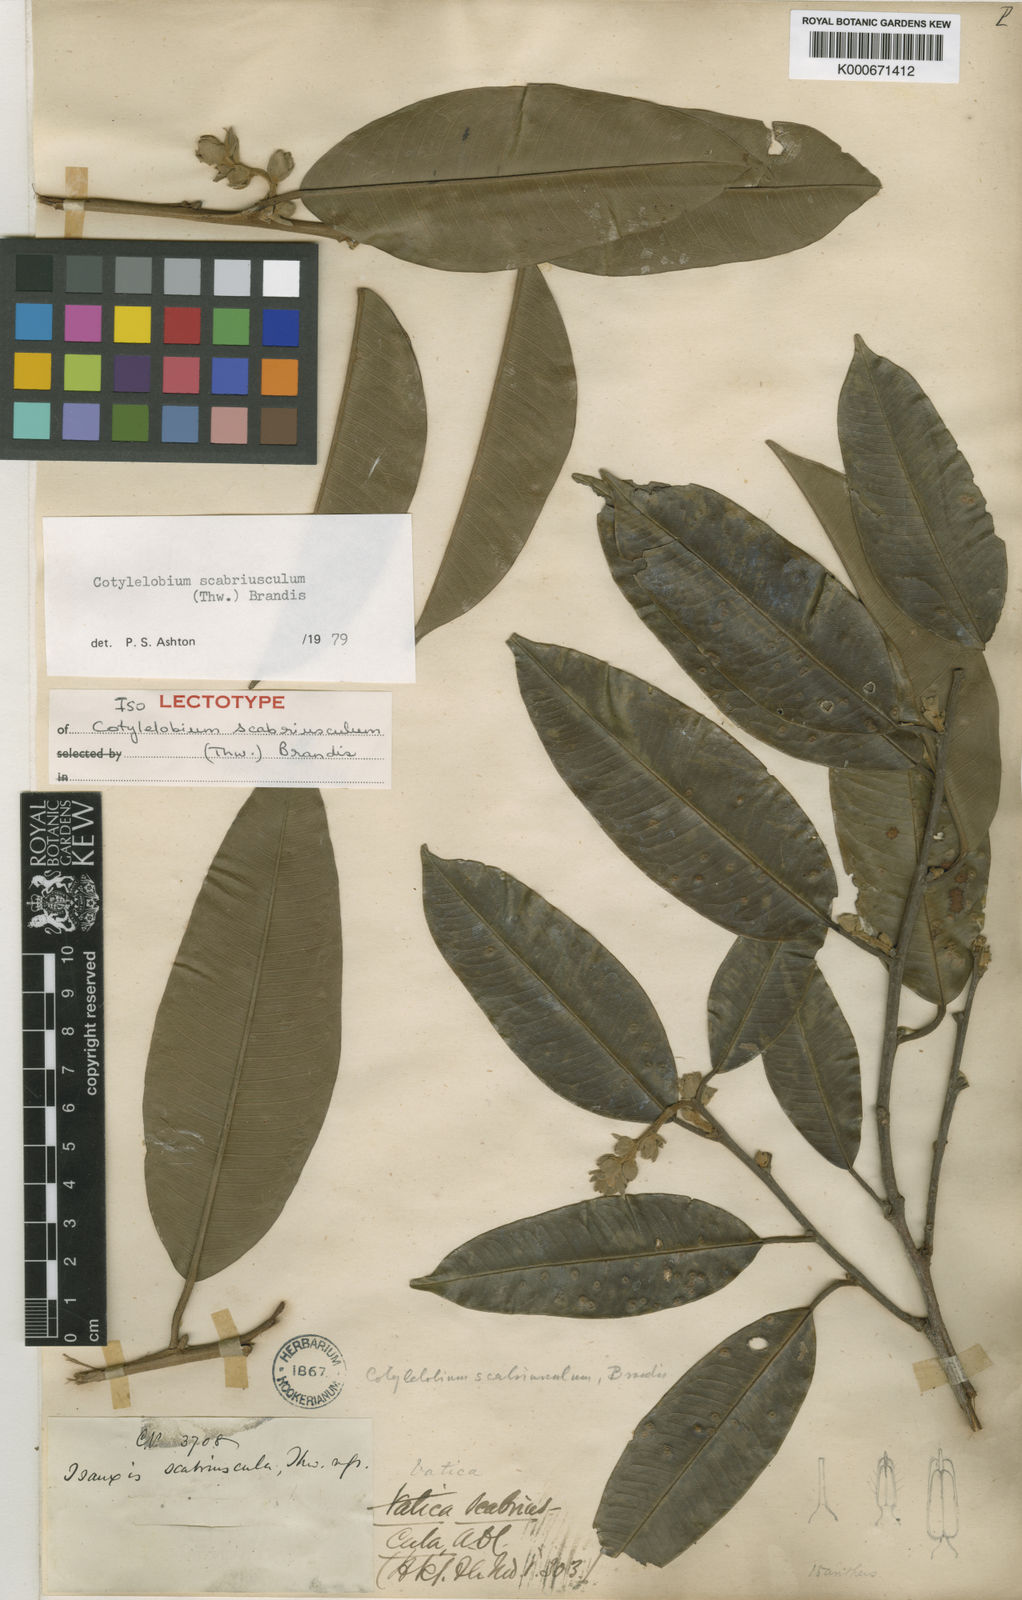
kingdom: Plantae
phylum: Tracheophyta
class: Magnoliopsida
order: Malvales
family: Dipterocarpaceae
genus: Cotylelobium
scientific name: Cotylelobium scabriusculum
